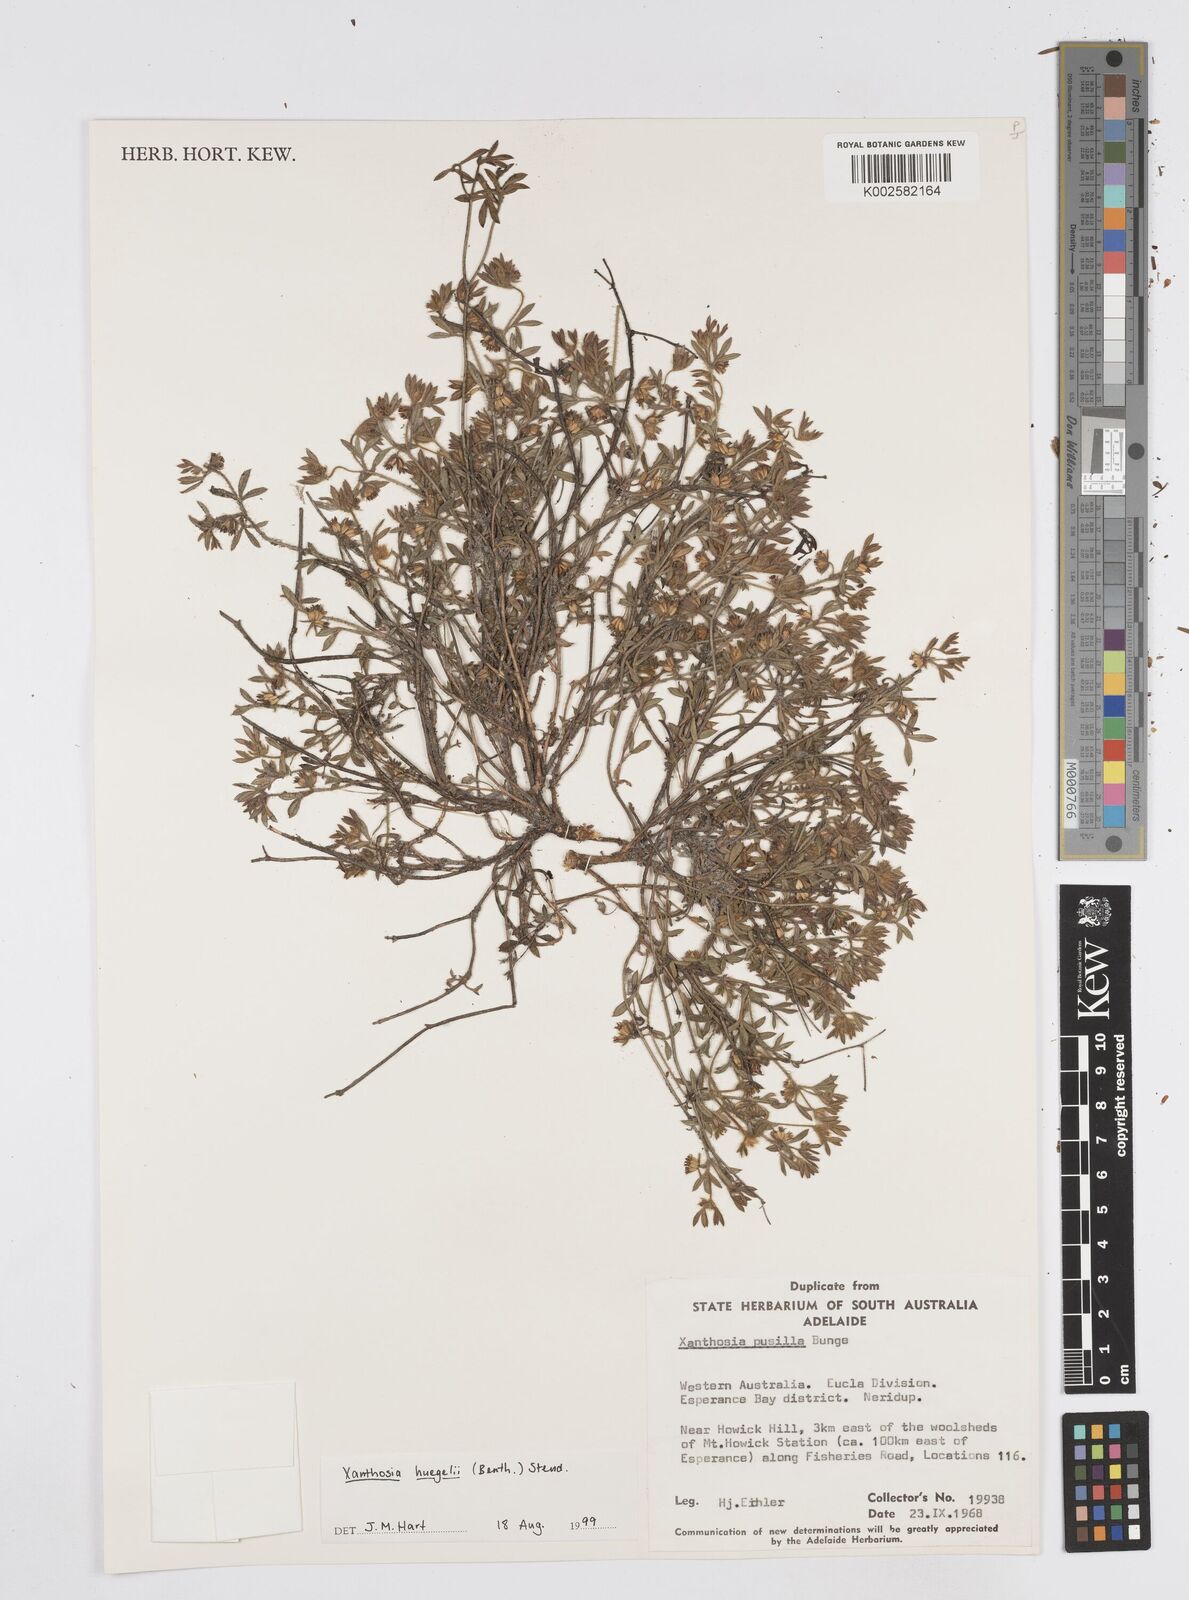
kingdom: Plantae
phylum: Tracheophyta
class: Magnoliopsida
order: Apiales
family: Apiaceae
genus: Xanthosia
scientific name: Xanthosia huegelii
